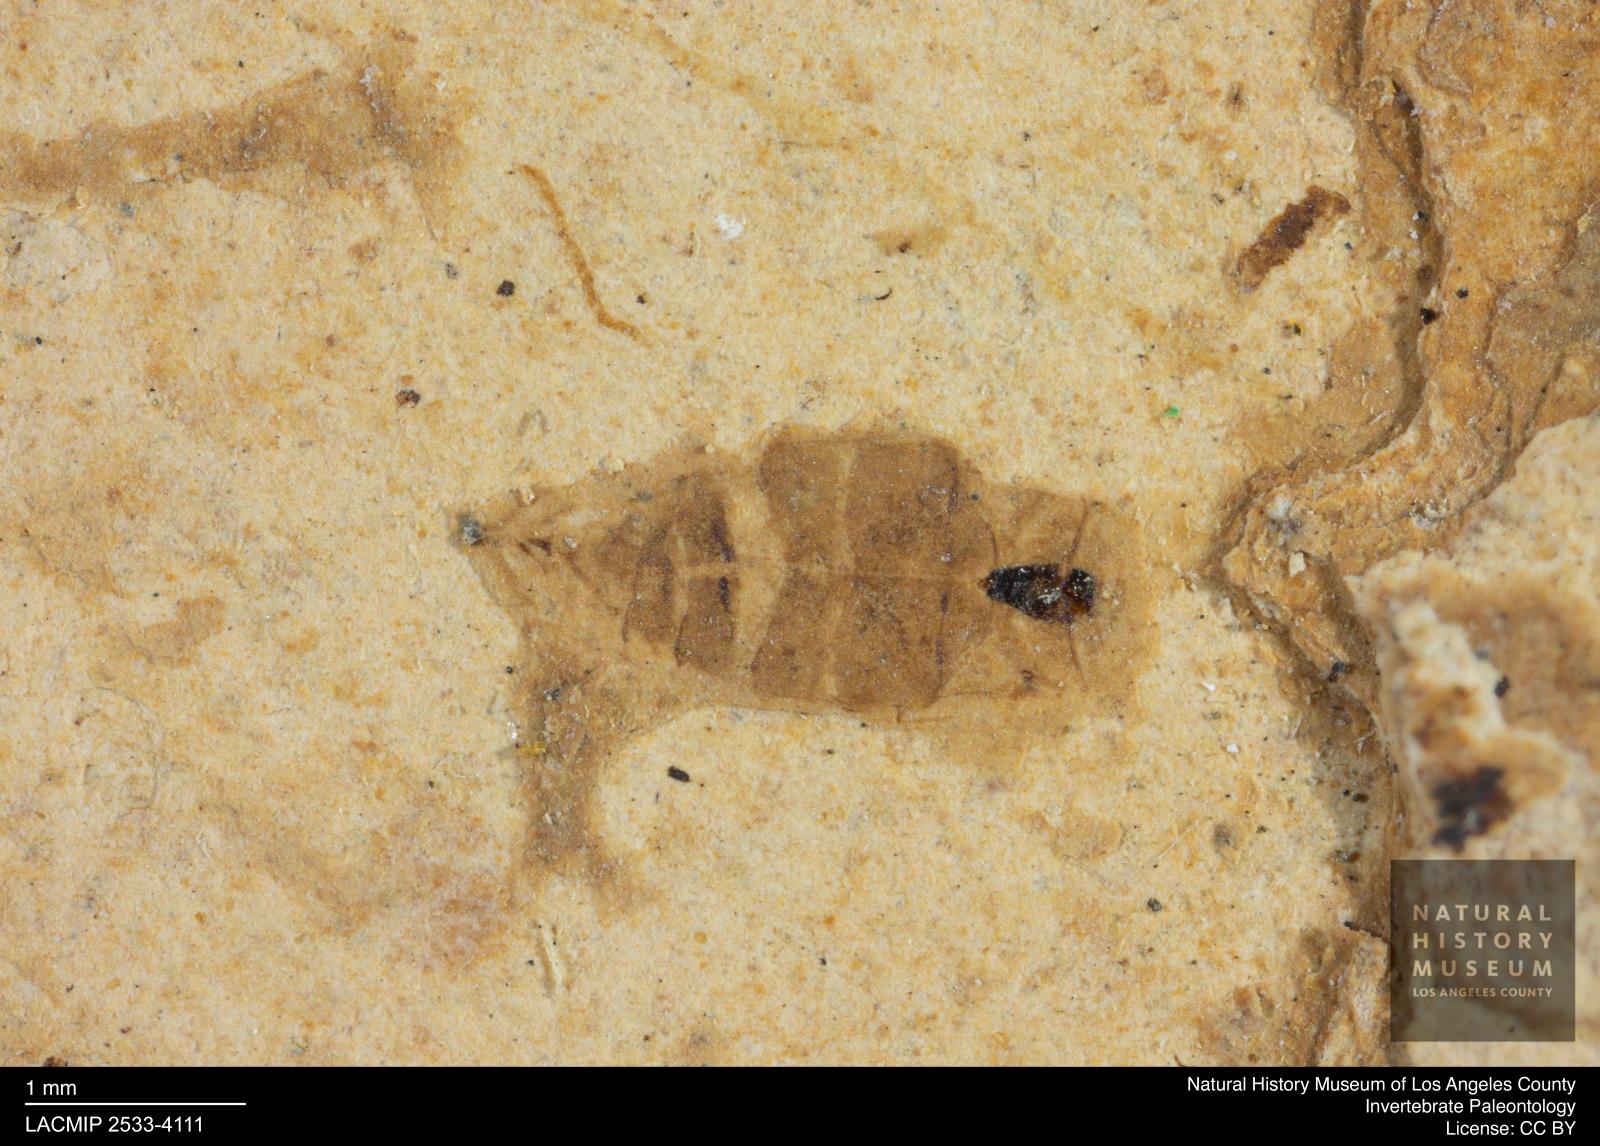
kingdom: Animalia
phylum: Arthropoda
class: Insecta
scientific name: Insecta
